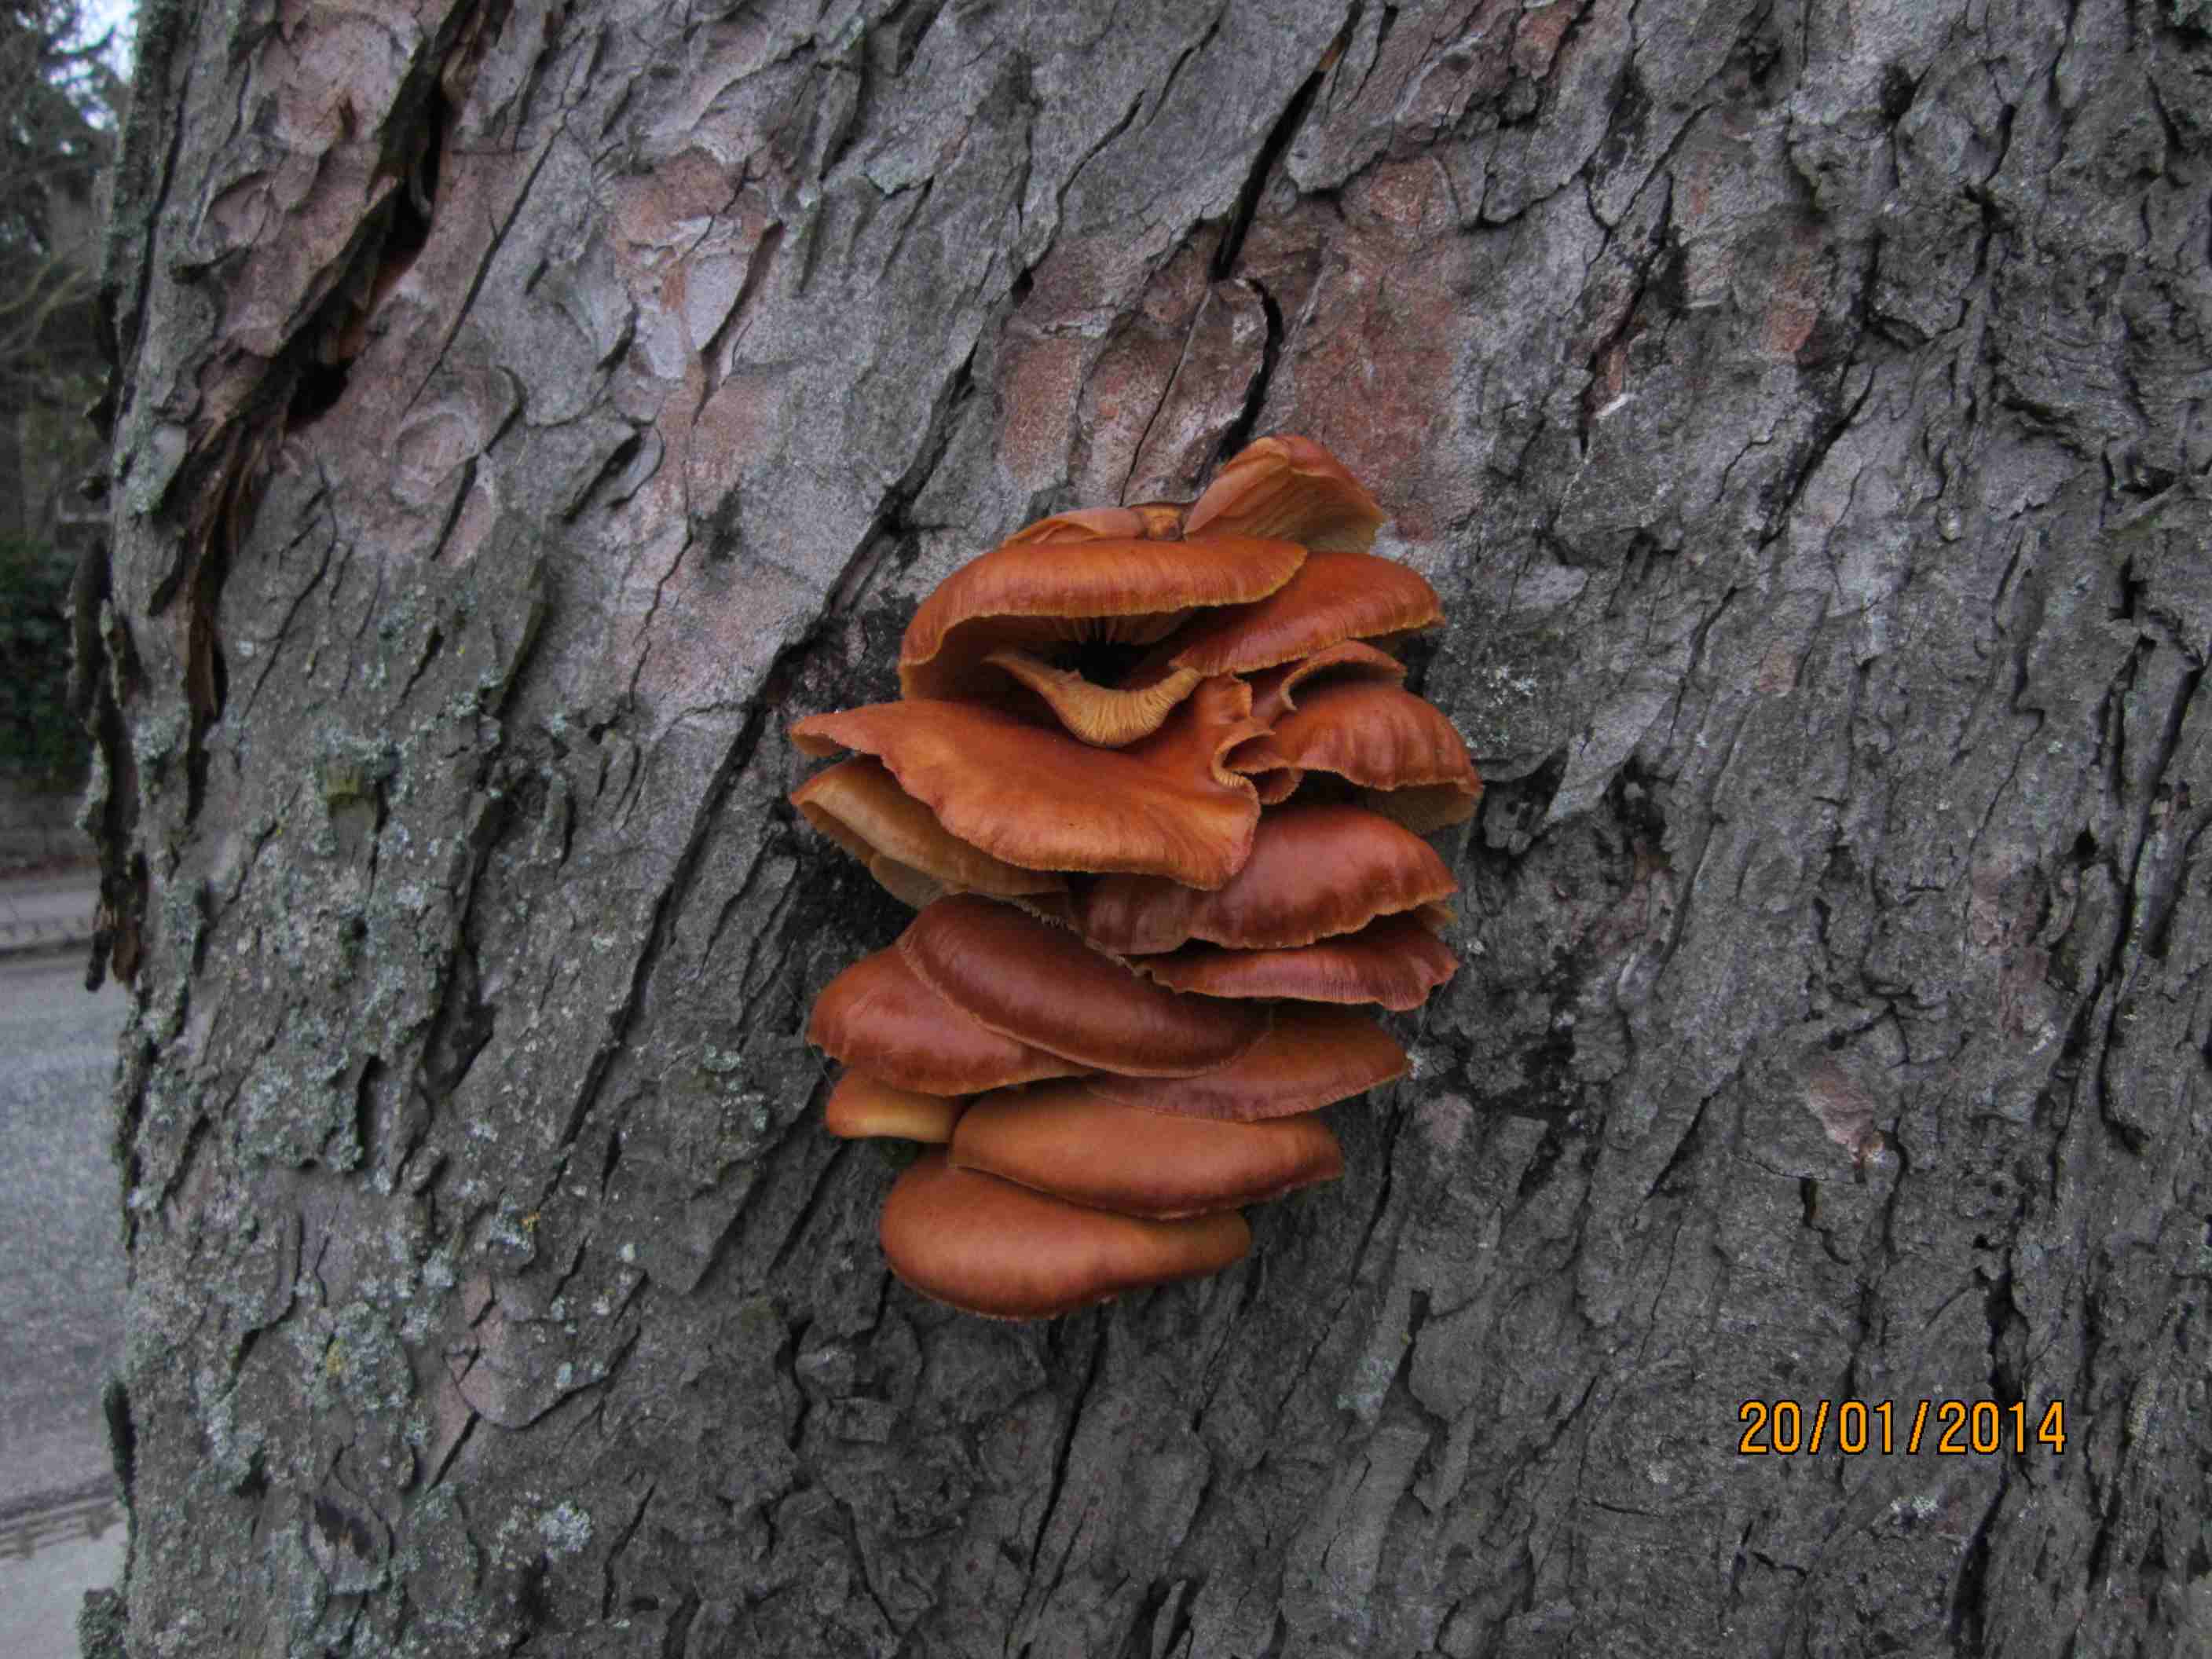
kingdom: Fungi
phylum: Basidiomycota
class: Agaricomycetes
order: Agaricales
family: Physalacriaceae
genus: Flammulina
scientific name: Flammulina velutipes
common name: gul fløjlsfod
